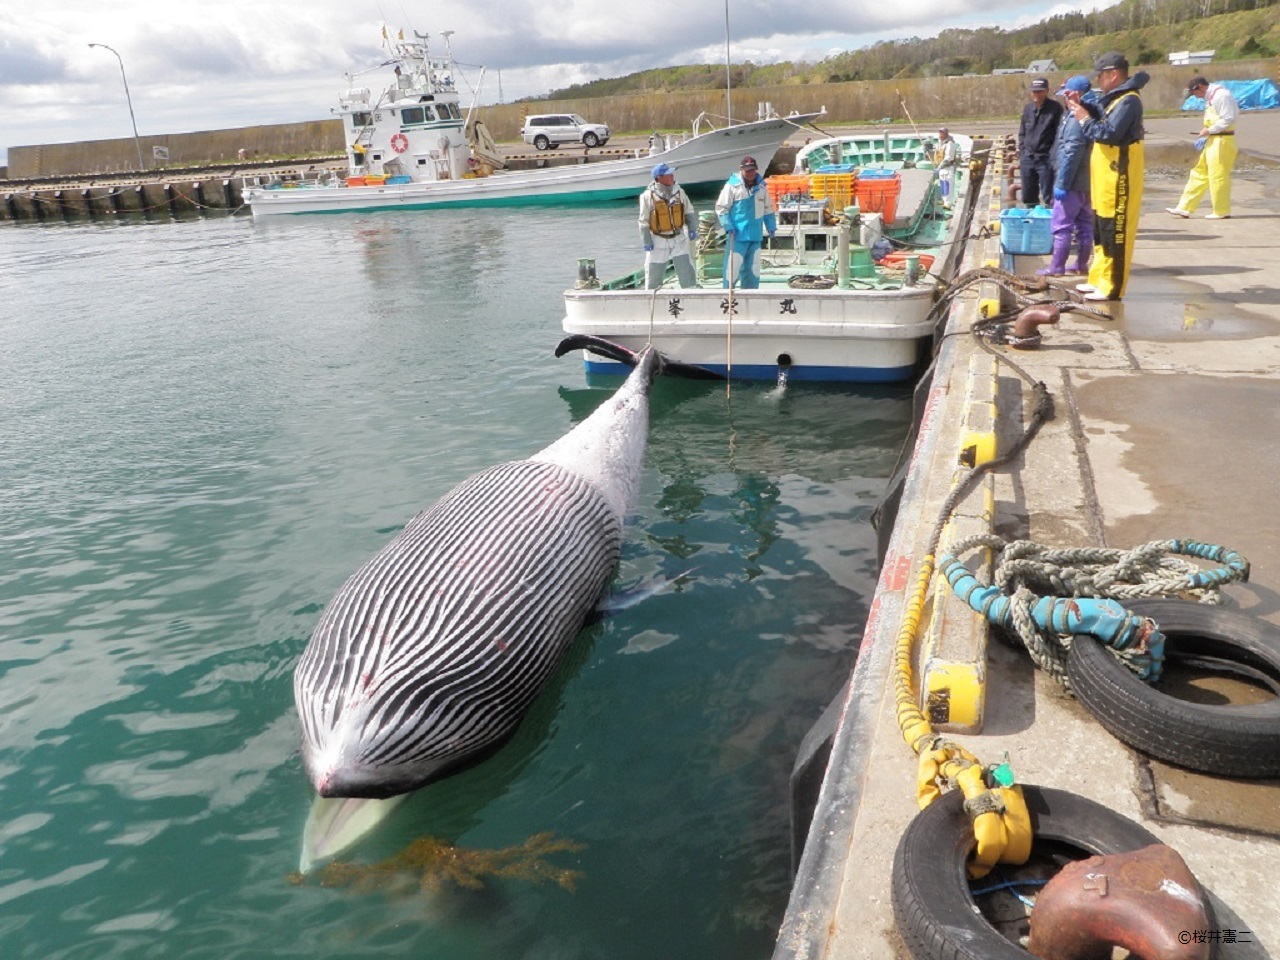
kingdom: Animalia
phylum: Chordata
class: Mammalia
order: Cetacea
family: Balaenopteridae
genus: Balaenoptera
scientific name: Balaenoptera acutorostrata
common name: Minke whale
